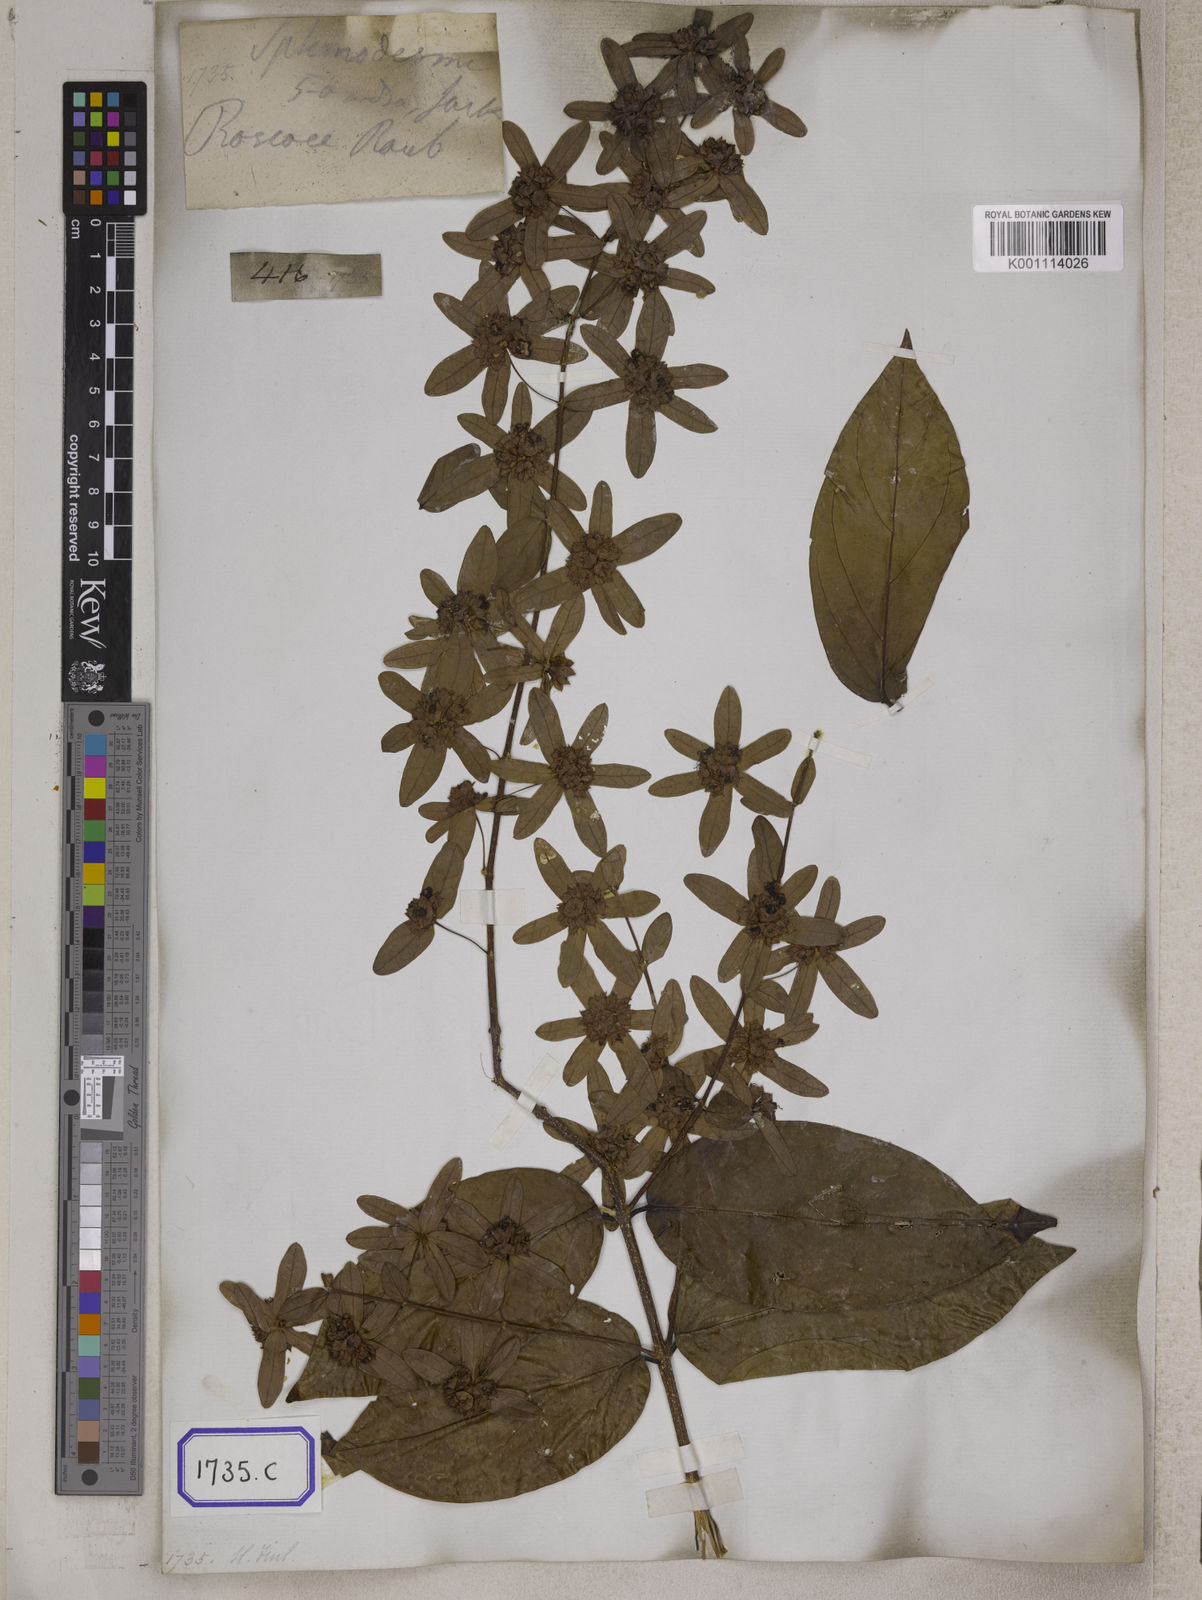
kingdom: Plantae
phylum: Tracheophyta
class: Magnoliopsida
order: Lamiales
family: Lamiaceae
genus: Sphenodesme
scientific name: Sphenodesme pentandra
